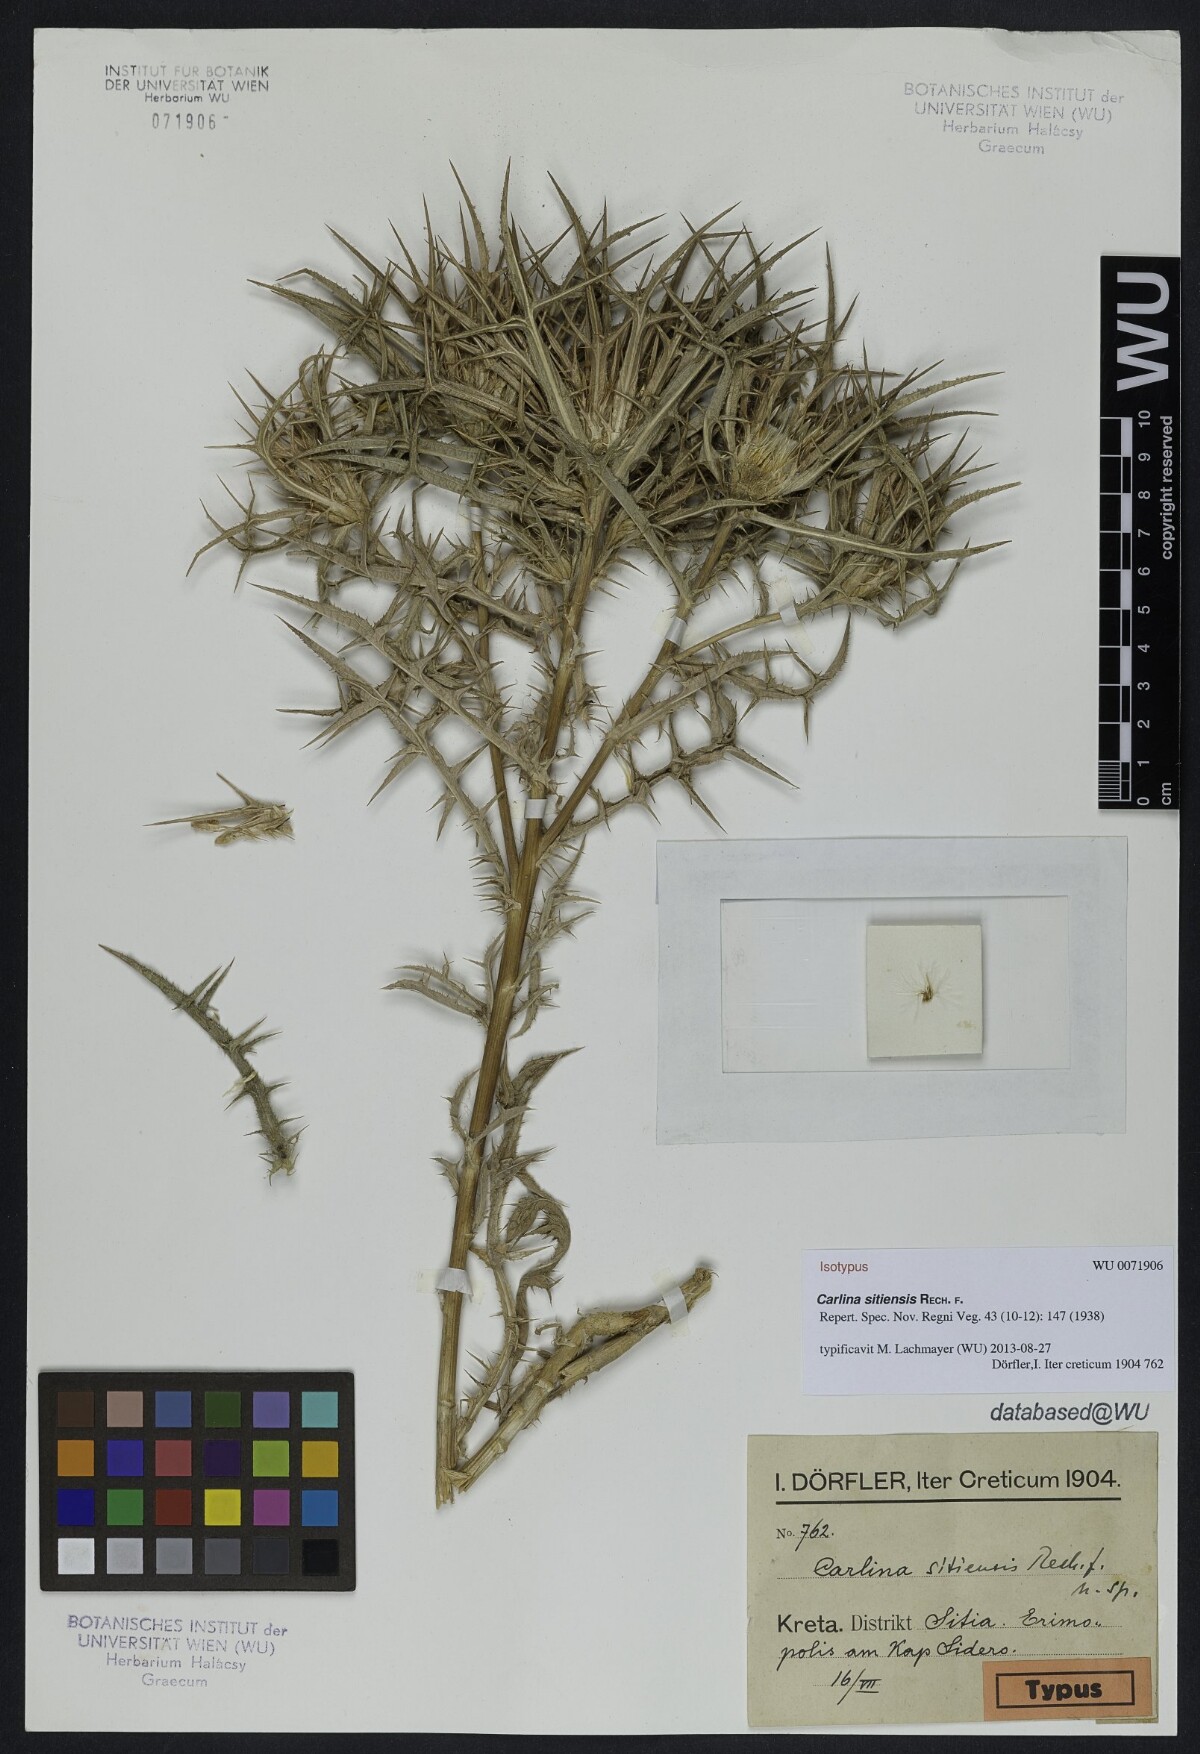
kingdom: Plantae
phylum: Tracheophyta
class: Magnoliopsida
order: Asterales
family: Asteraceae
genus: Carlina
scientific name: Carlina sitiensis
